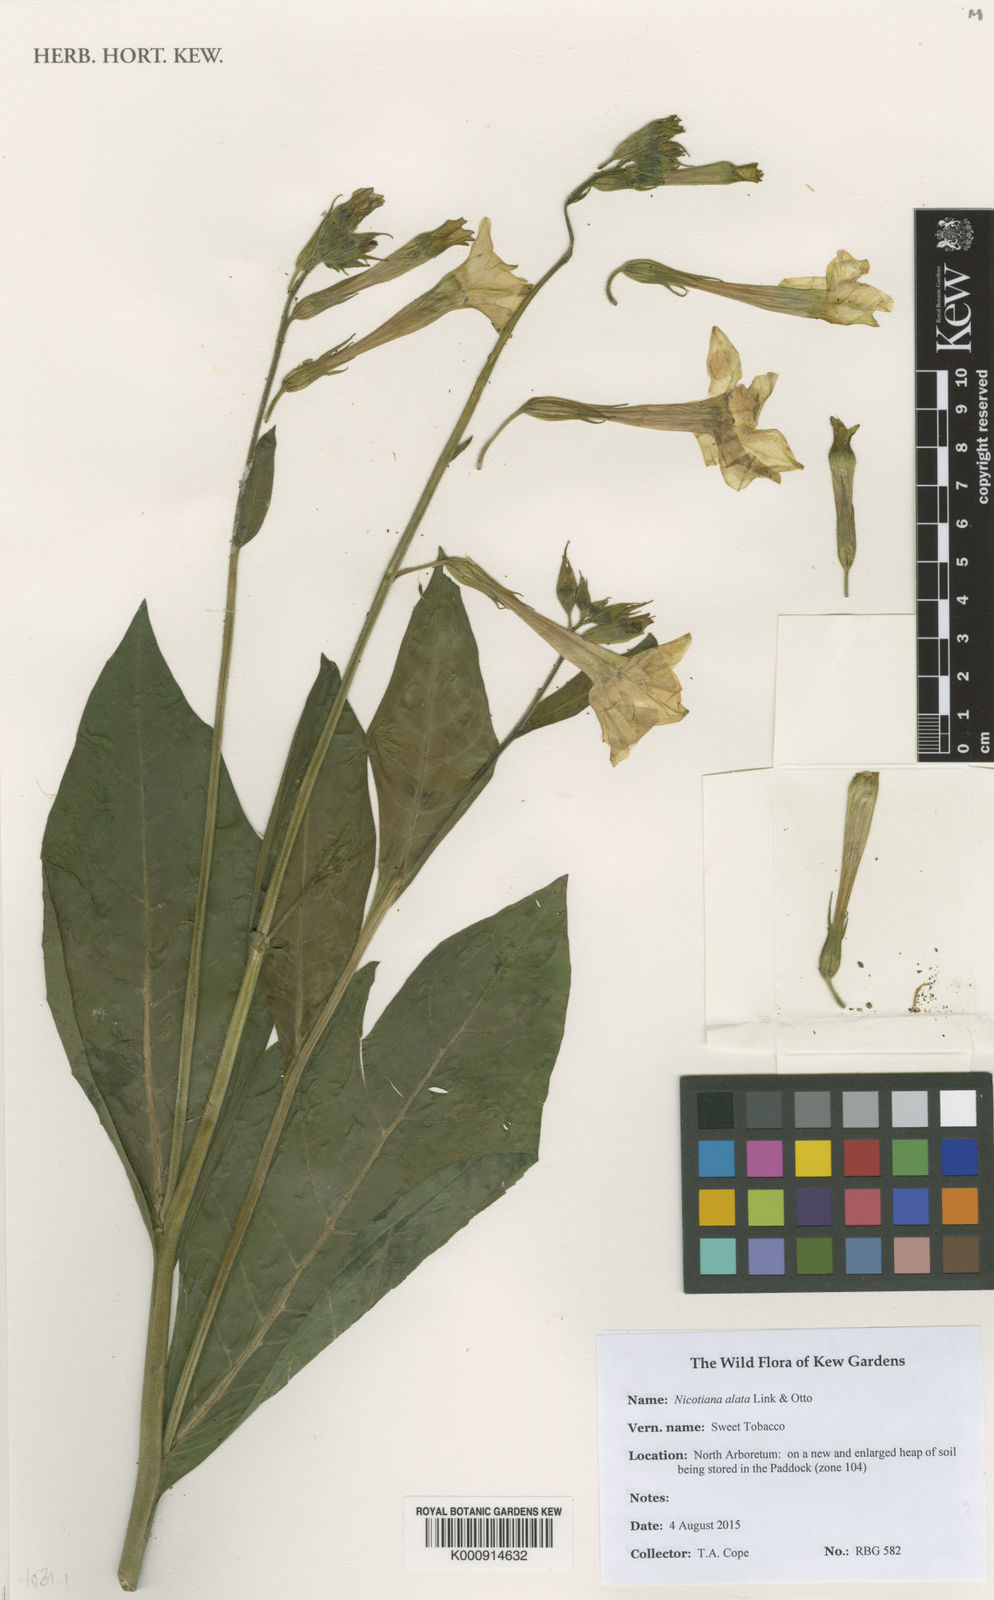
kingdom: Plantae
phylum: Tracheophyta
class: Magnoliopsida
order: Solanales
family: Solanaceae
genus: Nicotiana
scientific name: Nicotiana alata
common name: Jasmine tobacco
